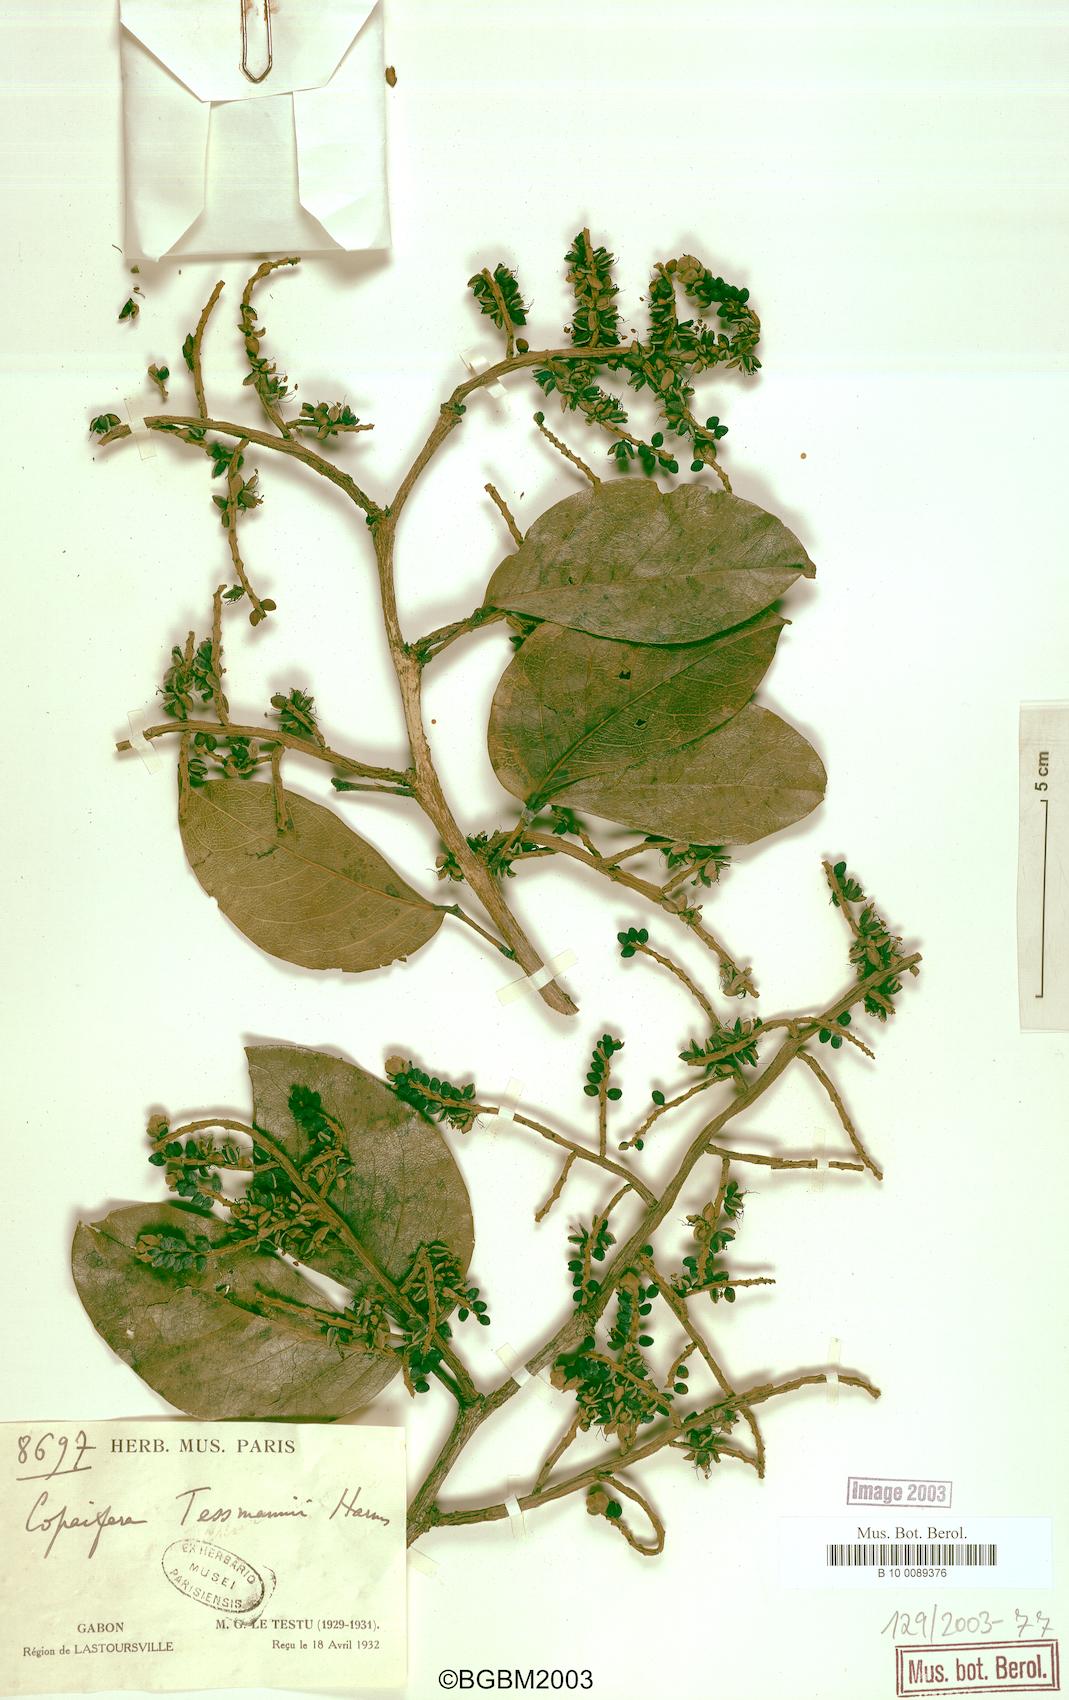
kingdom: Plantae
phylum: Tracheophyta
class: Magnoliopsida
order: Fabales
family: Fabaceae
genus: Guibourtia
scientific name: Guibourtia tessmannii
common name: Akume
